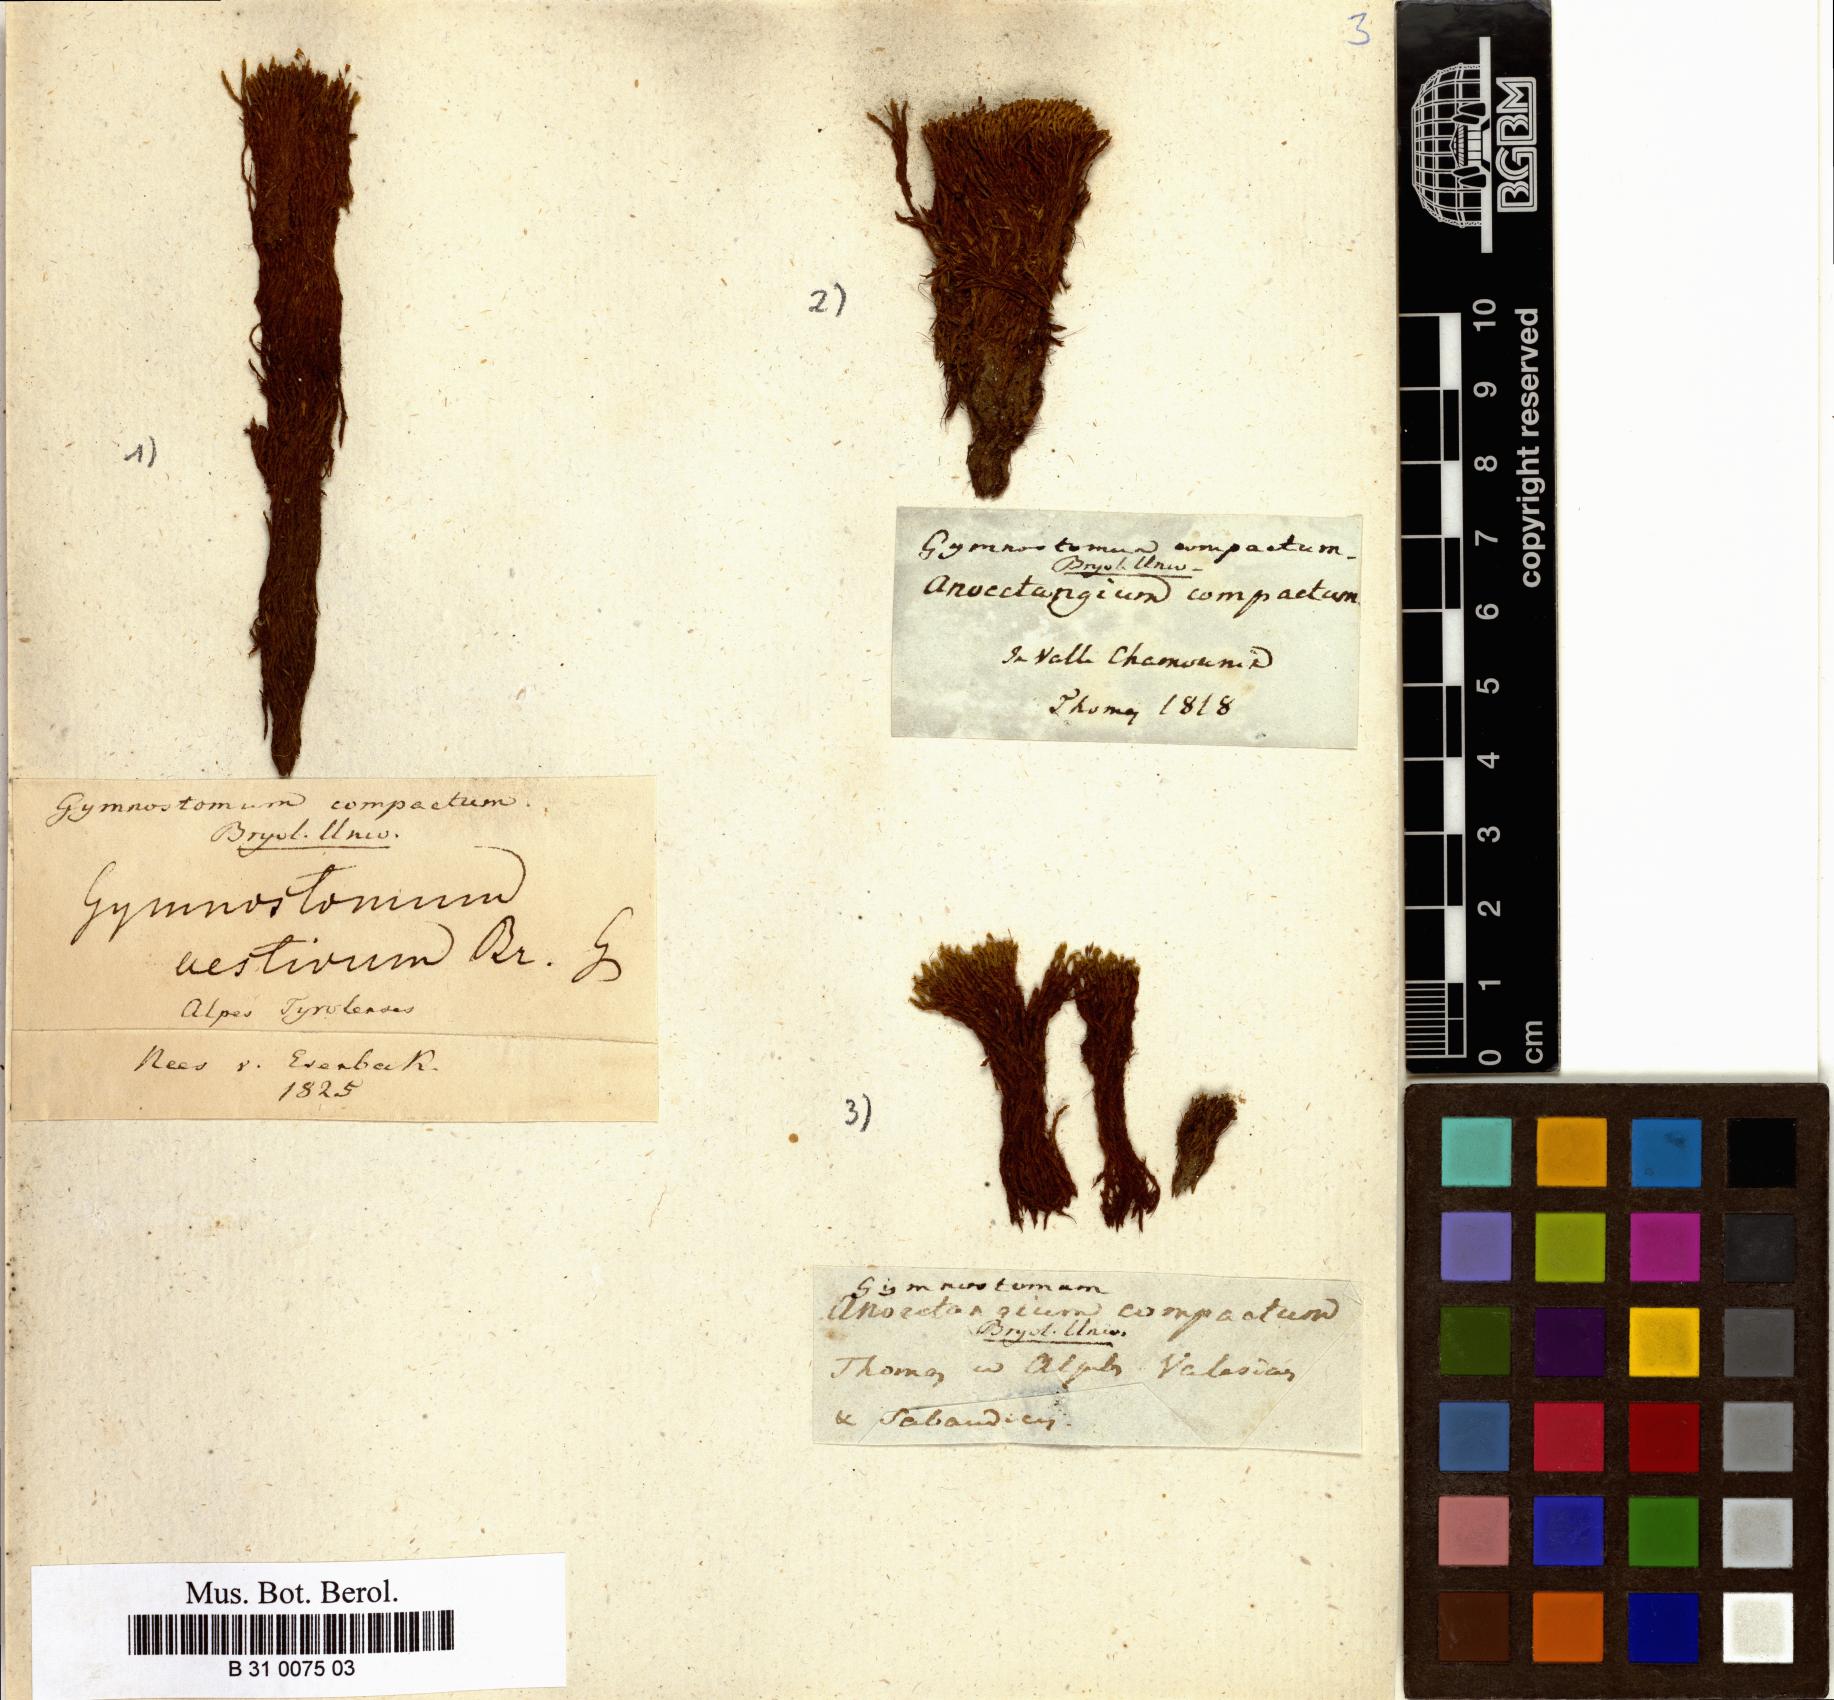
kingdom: Plantae
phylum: Bryophyta
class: Bryopsida
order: Pottiales
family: Pottiaceae
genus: Anoectangium
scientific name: Anoectangium aestivum
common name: Summer-moss
